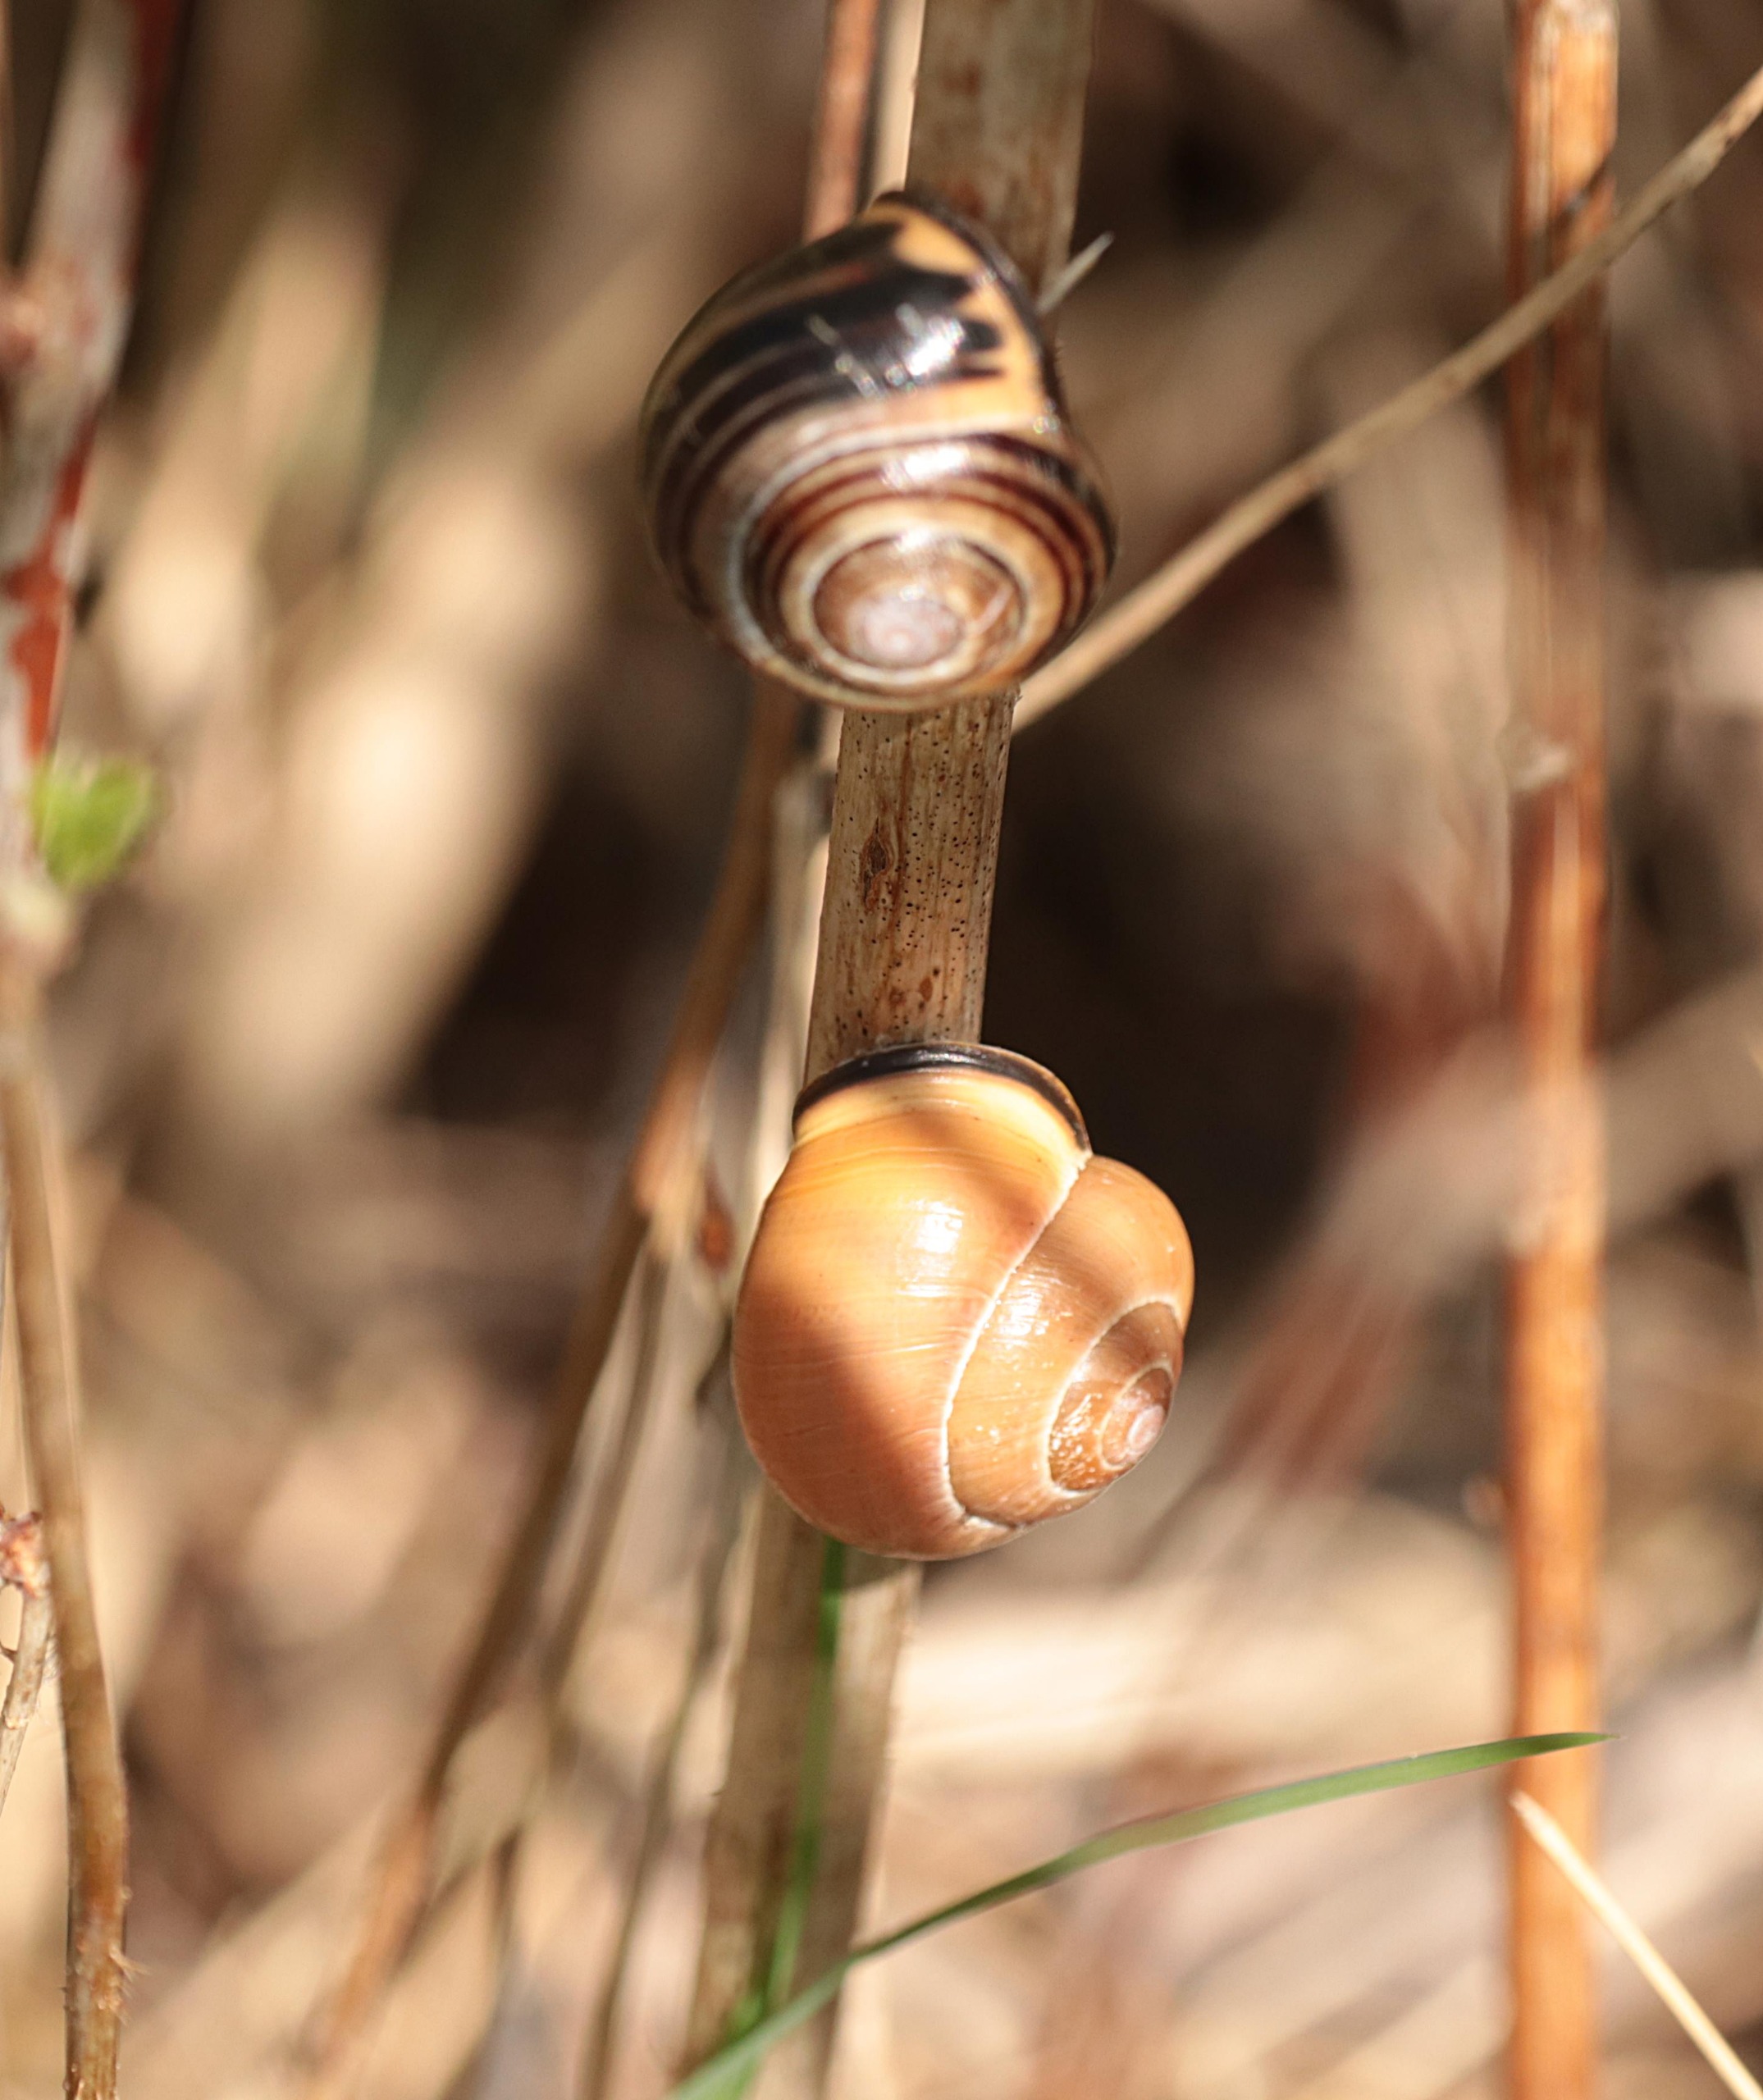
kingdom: Animalia
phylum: Mollusca
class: Gastropoda
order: Stylommatophora
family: Helicidae
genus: Cepaea
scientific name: Cepaea nemoralis
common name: Lundsnegl
